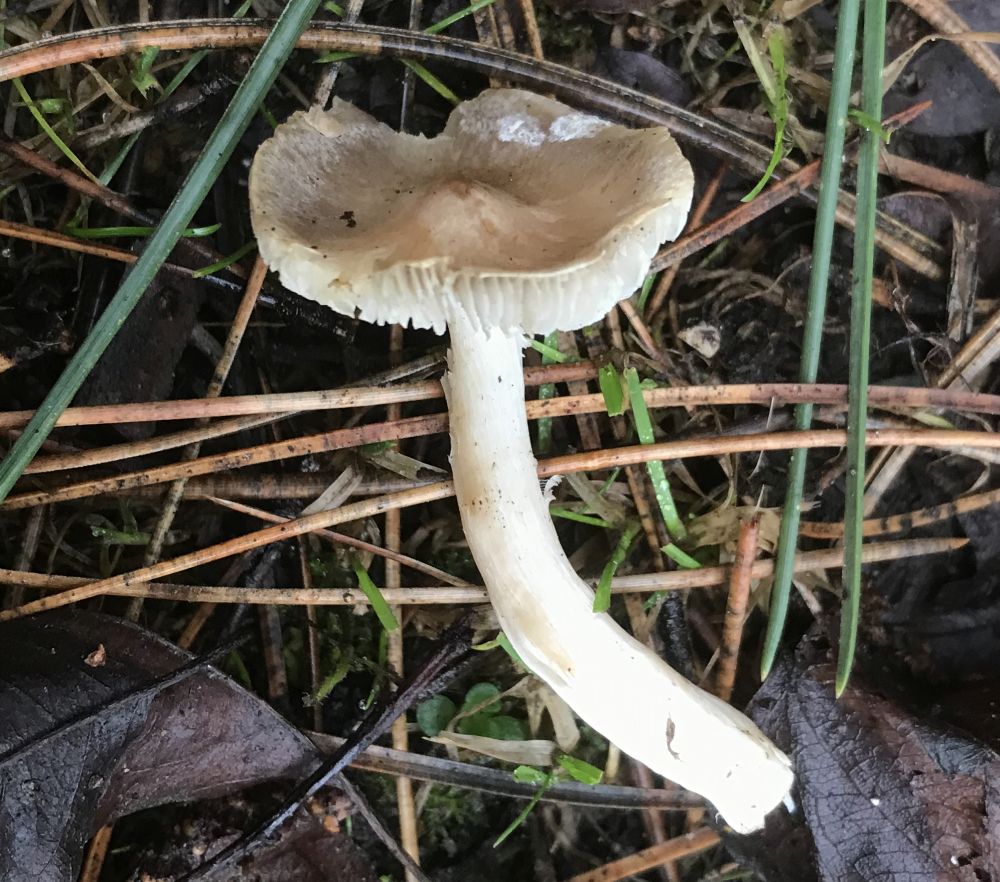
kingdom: Fungi
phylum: Basidiomycota
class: Agaricomycetes
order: Agaricales
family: Tricholomataceae
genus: Tricholoma
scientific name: Tricholoma
